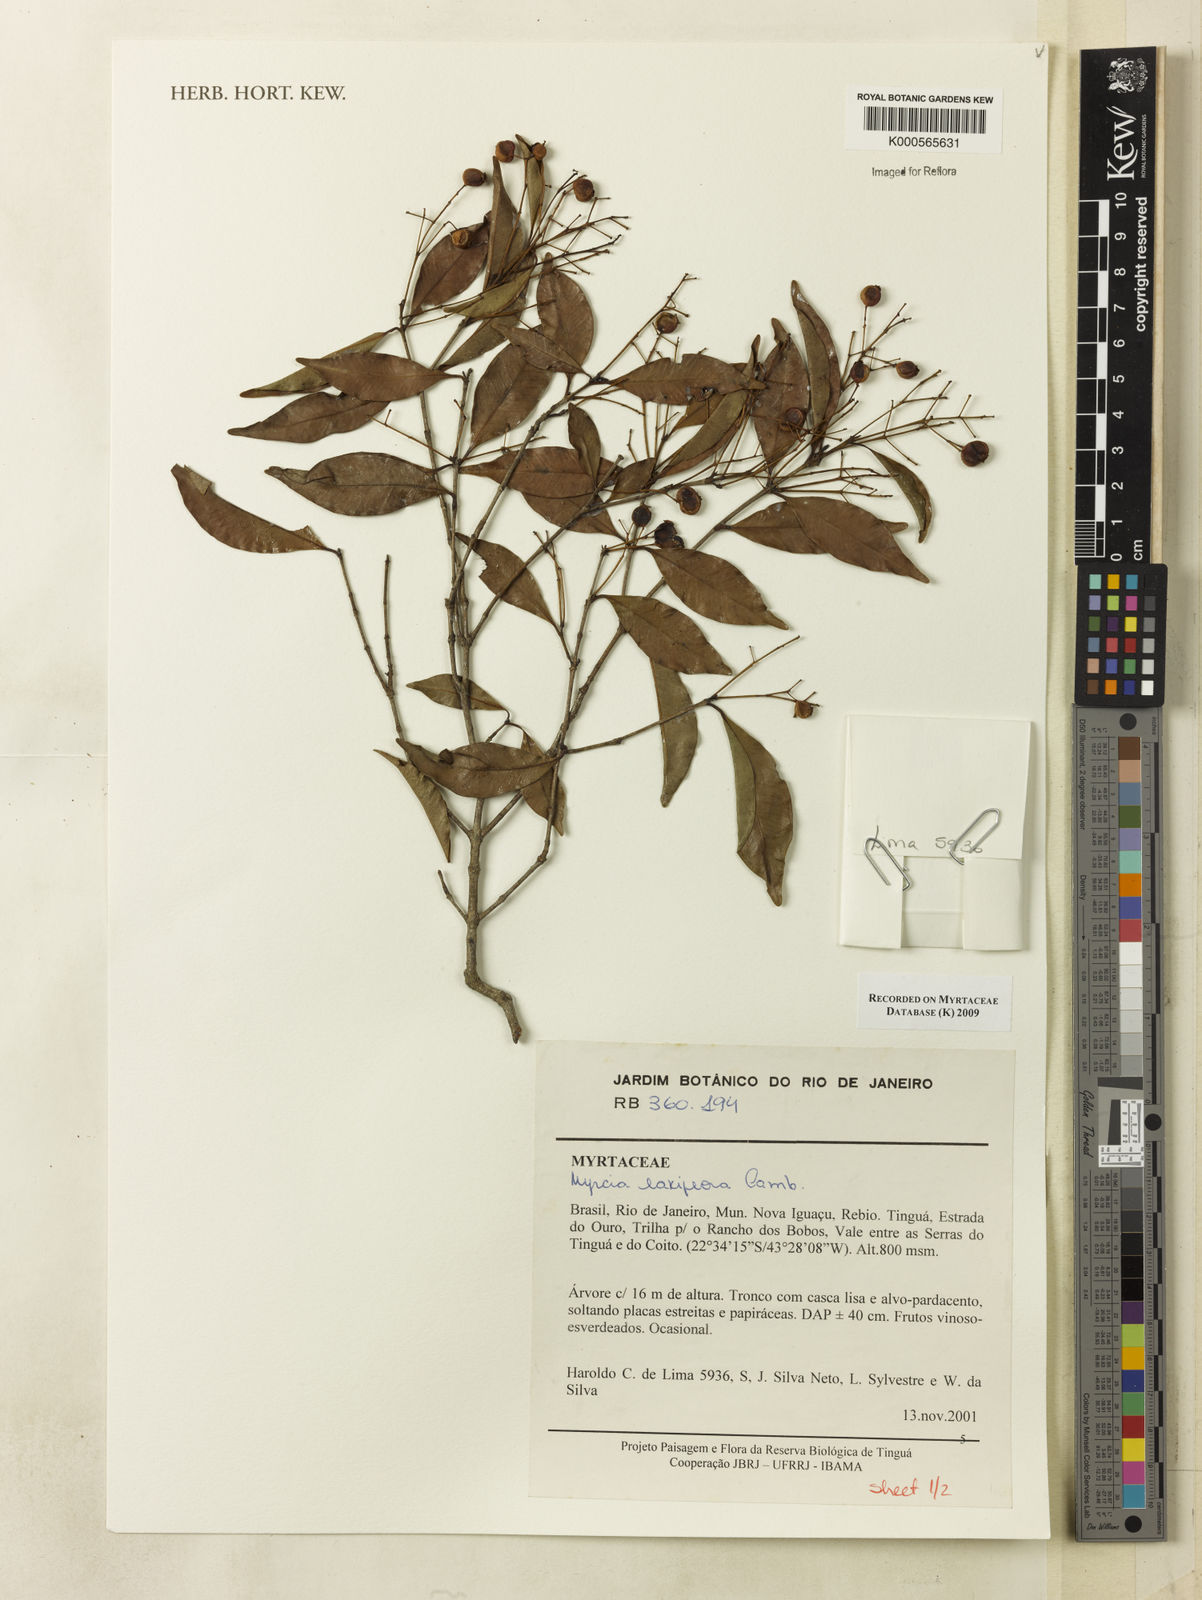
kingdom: Plantae
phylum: Tracheophyta
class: Magnoliopsida
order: Myrtales
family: Myrtaceae
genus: Myrcia
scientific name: Myrcia laxiflora
